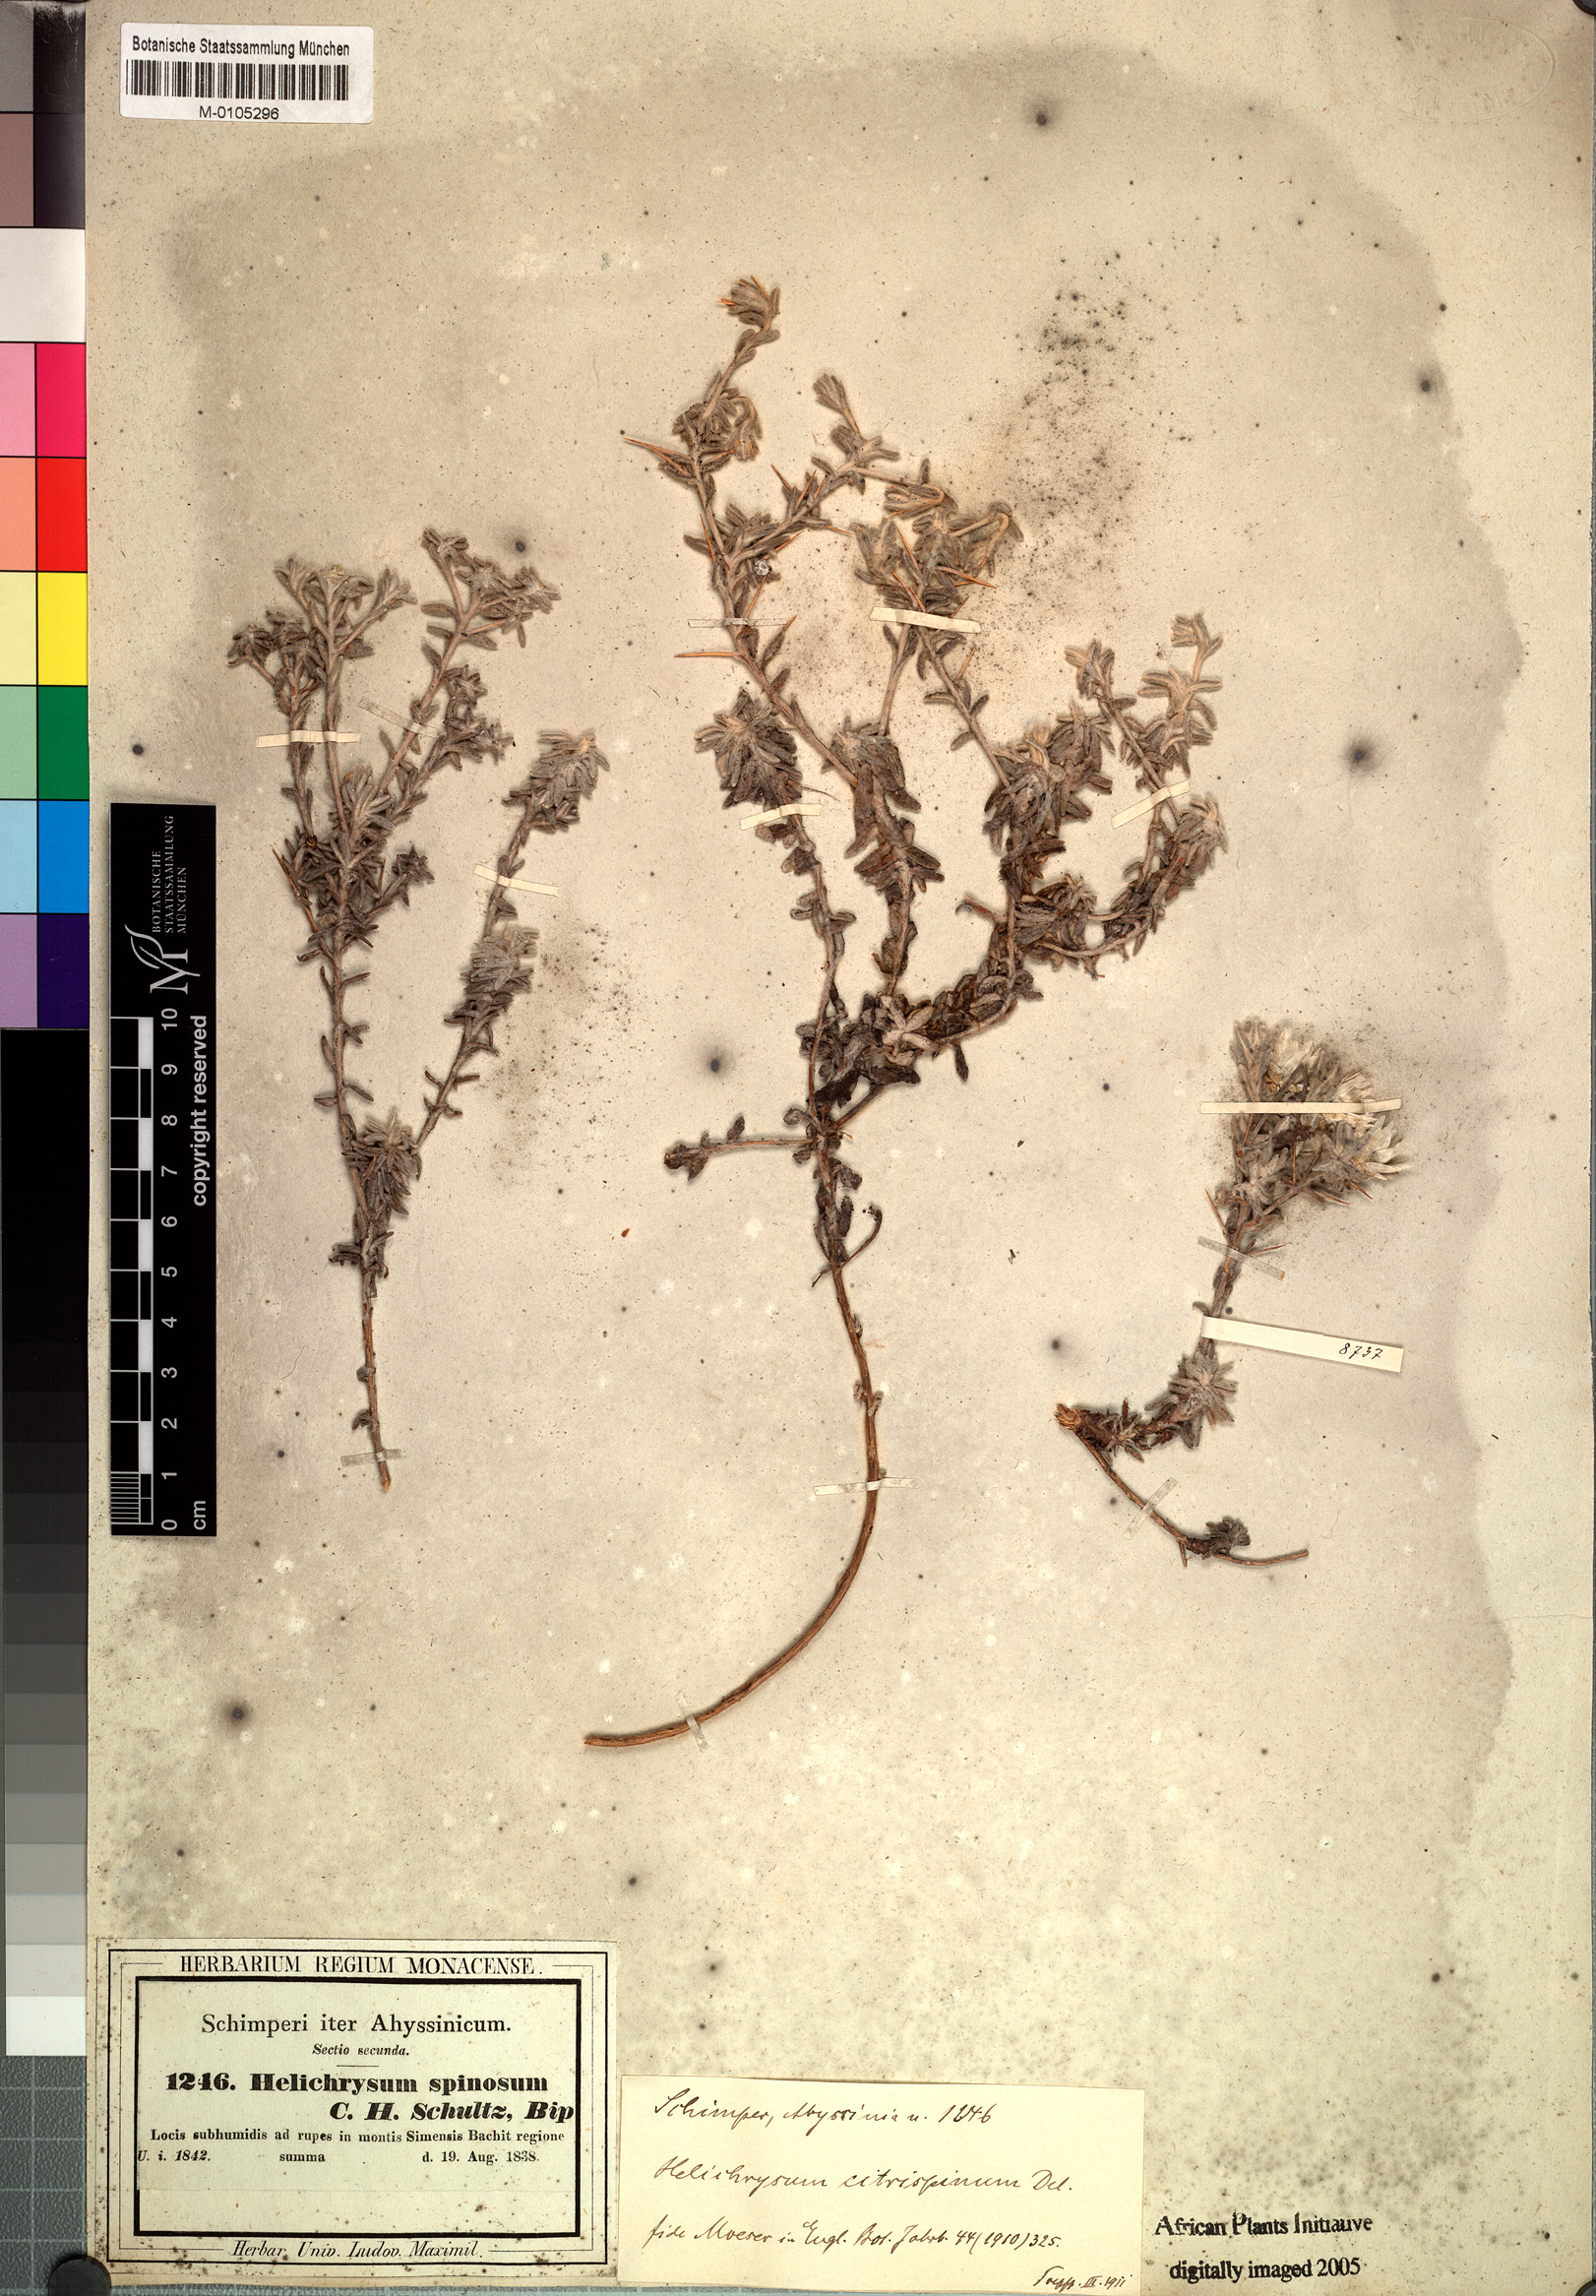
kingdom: Plantae
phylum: Tracheophyta
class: Magnoliopsida
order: Asterales
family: Asteraceae
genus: Helichrysum
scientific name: Helichrysum citrispinum
